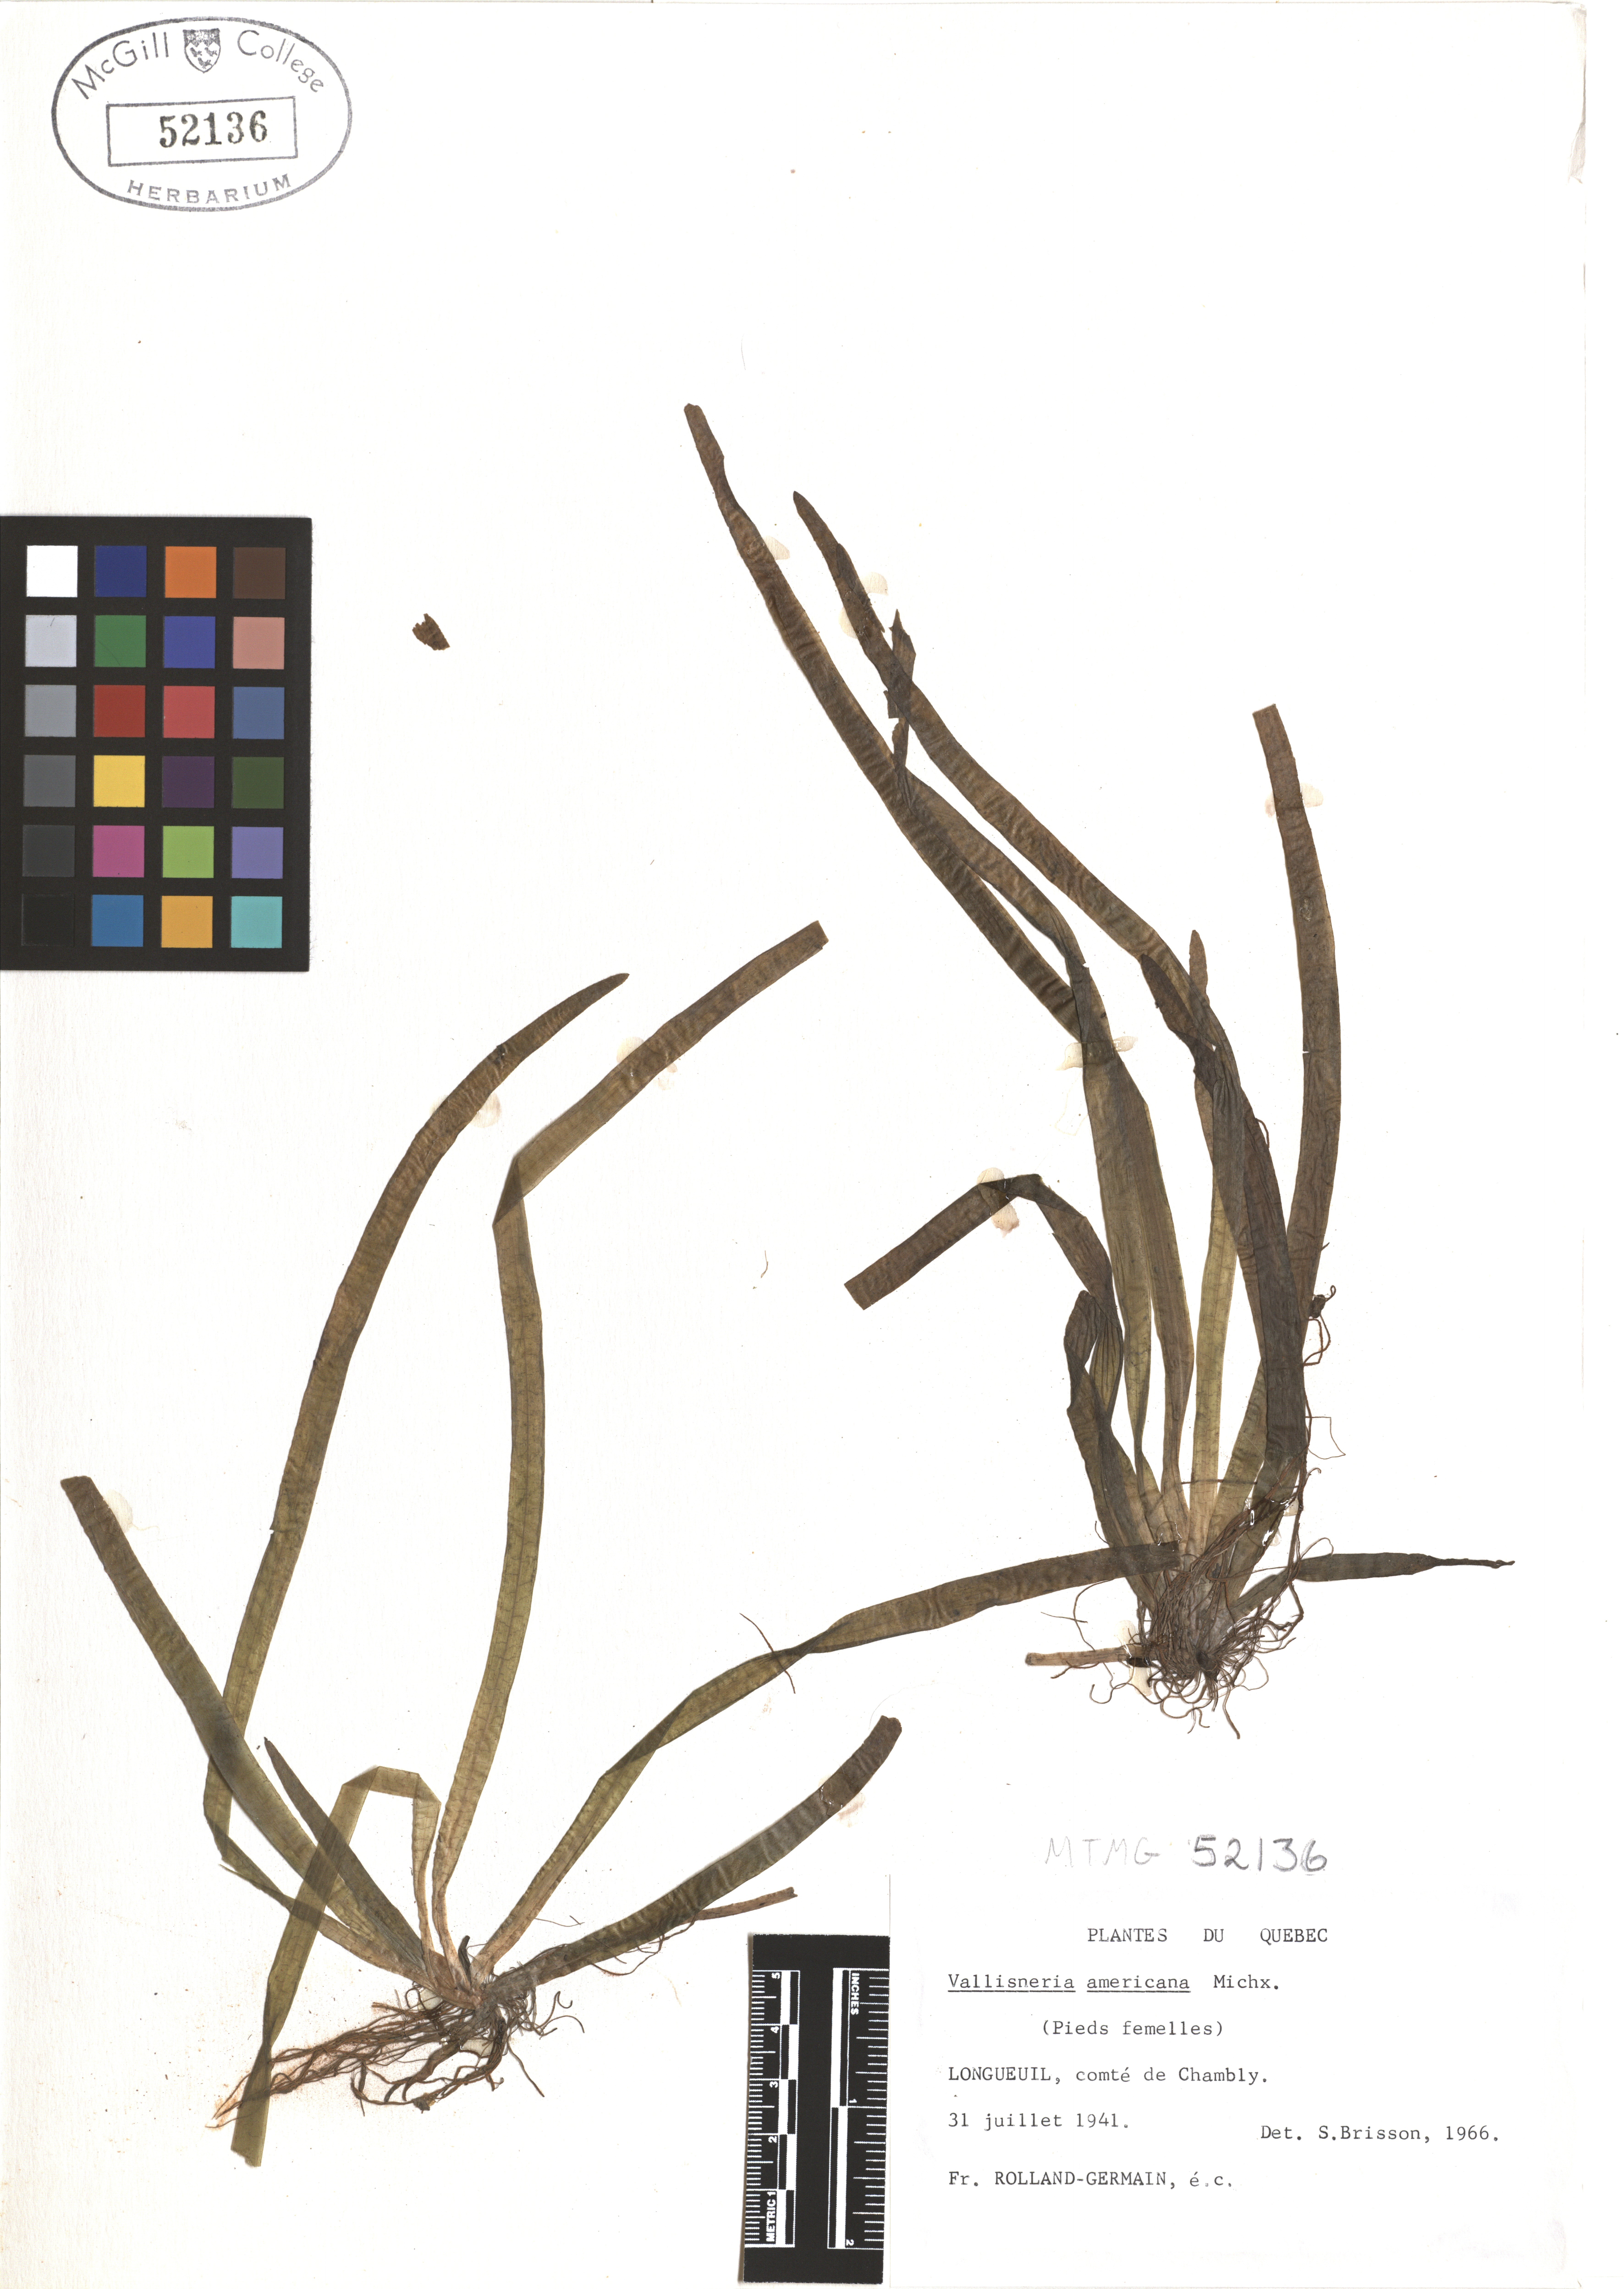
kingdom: Plantae
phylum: Tracheophyta
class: Liliopsida
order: Alismatales
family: Hydrocharitaceae
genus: Vallisneria
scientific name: Vallisneria americana
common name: American eelgrass
